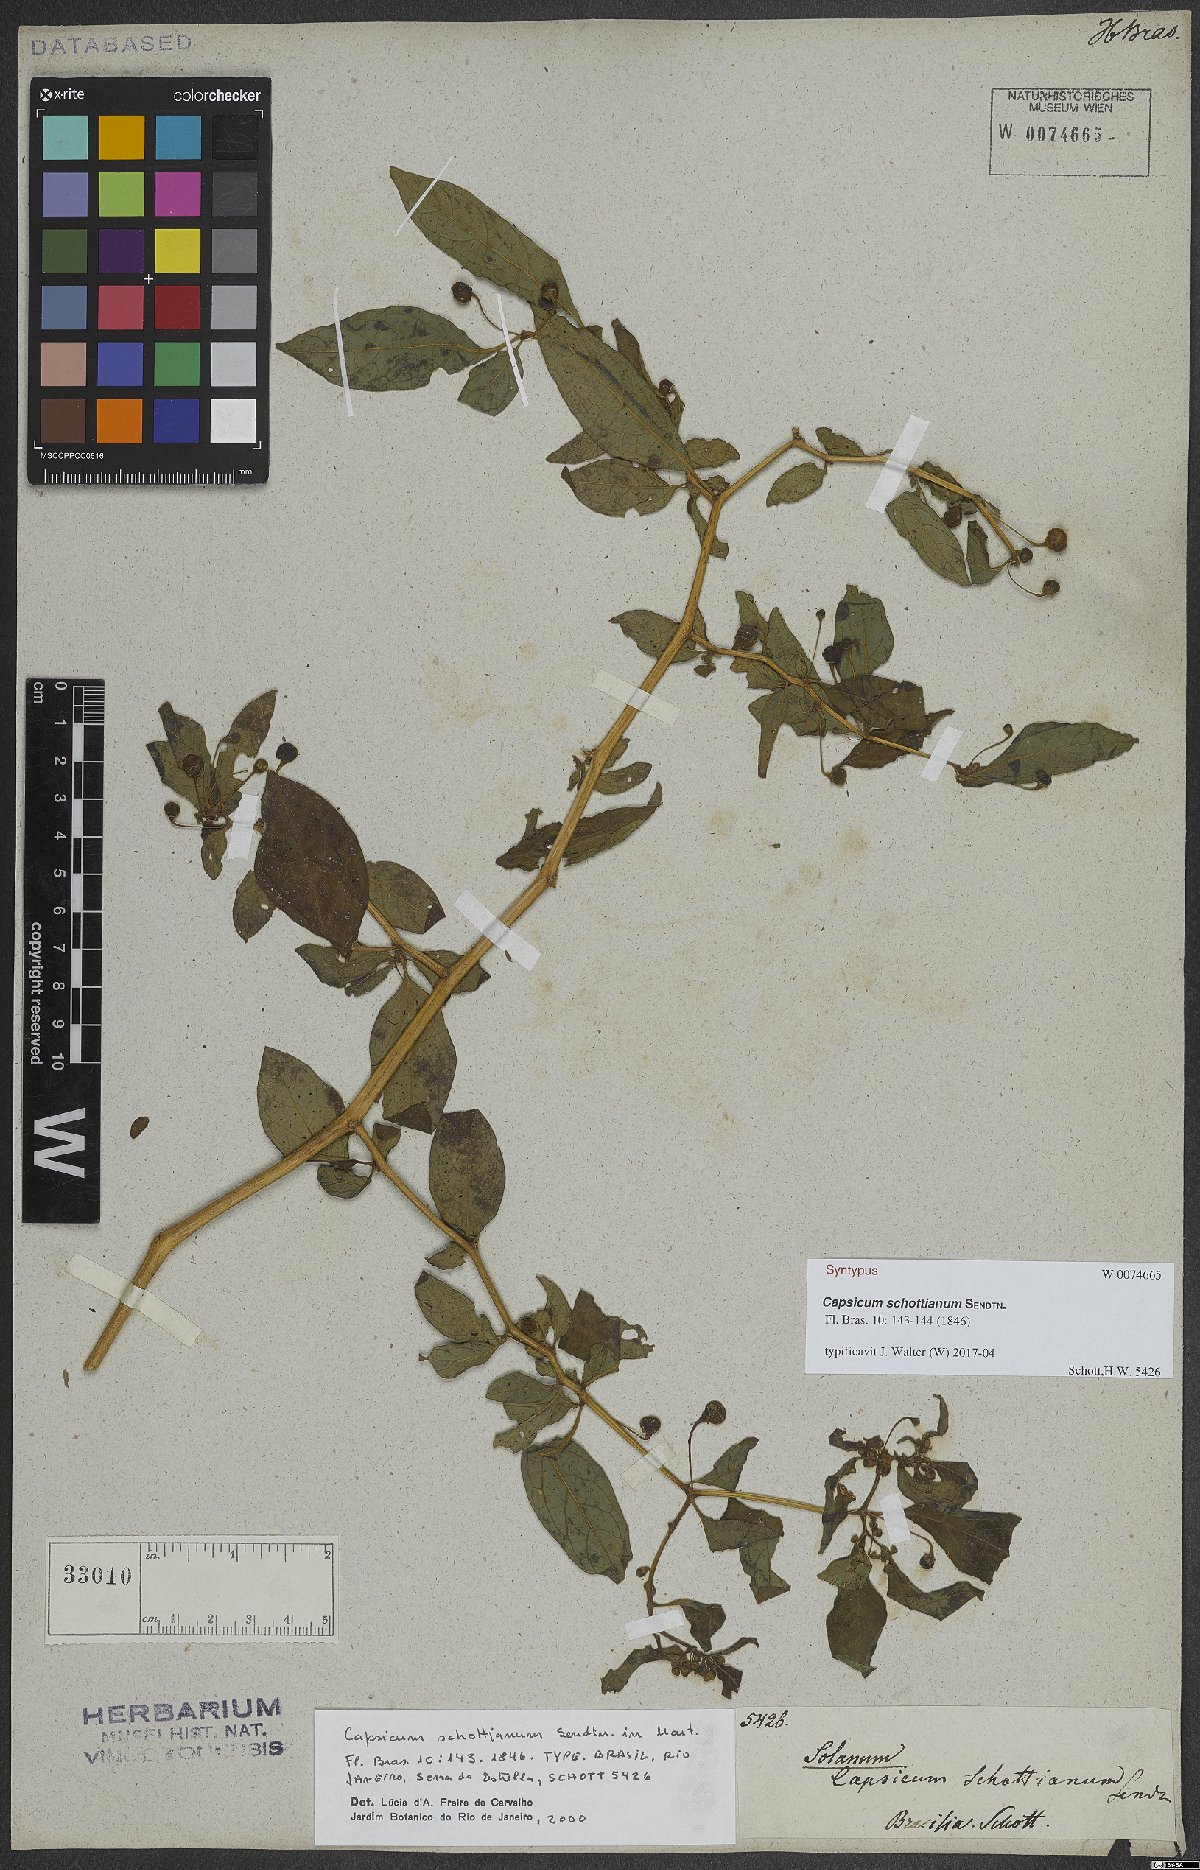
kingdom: Plantae
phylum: Tracheophyta
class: Magnoliopsida
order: Solanales
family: Solanaceae
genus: Capsicum
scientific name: Capsicum schottianum
